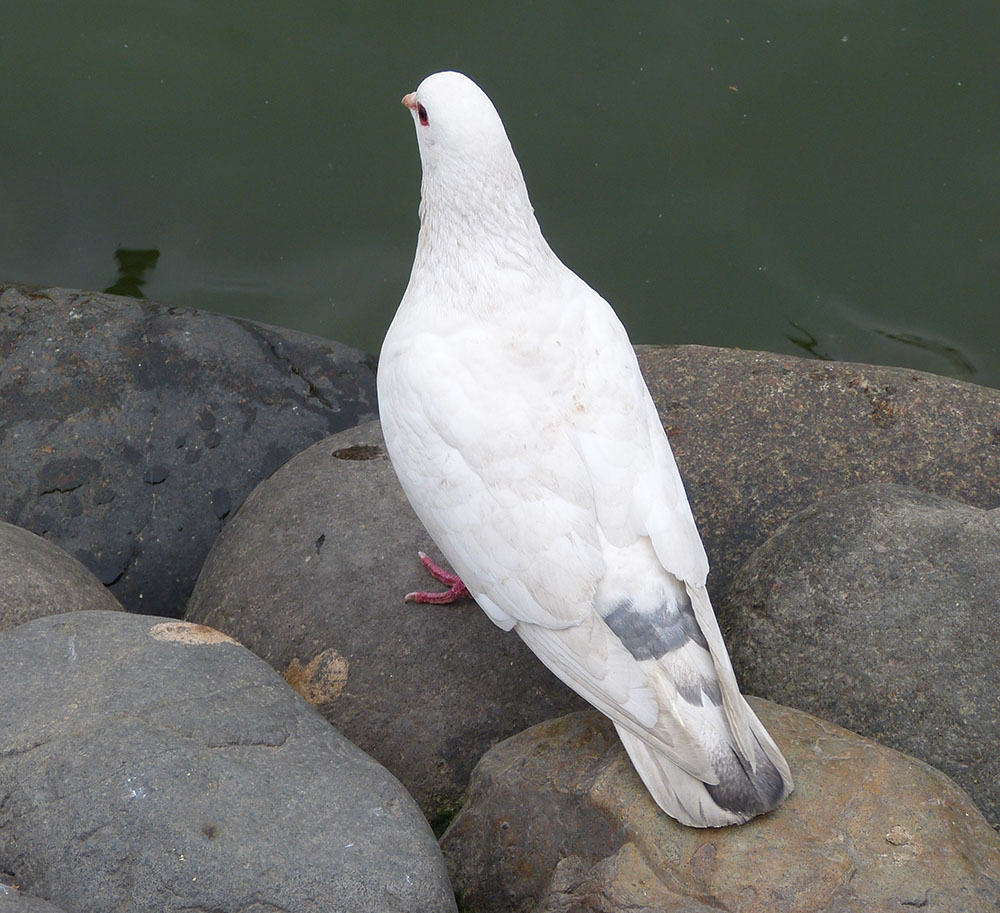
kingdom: Animalia
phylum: Chordata
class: Aves
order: Columbiformes
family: Columbidae
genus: Columba
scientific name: Columba livia
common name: Rock pigeon
